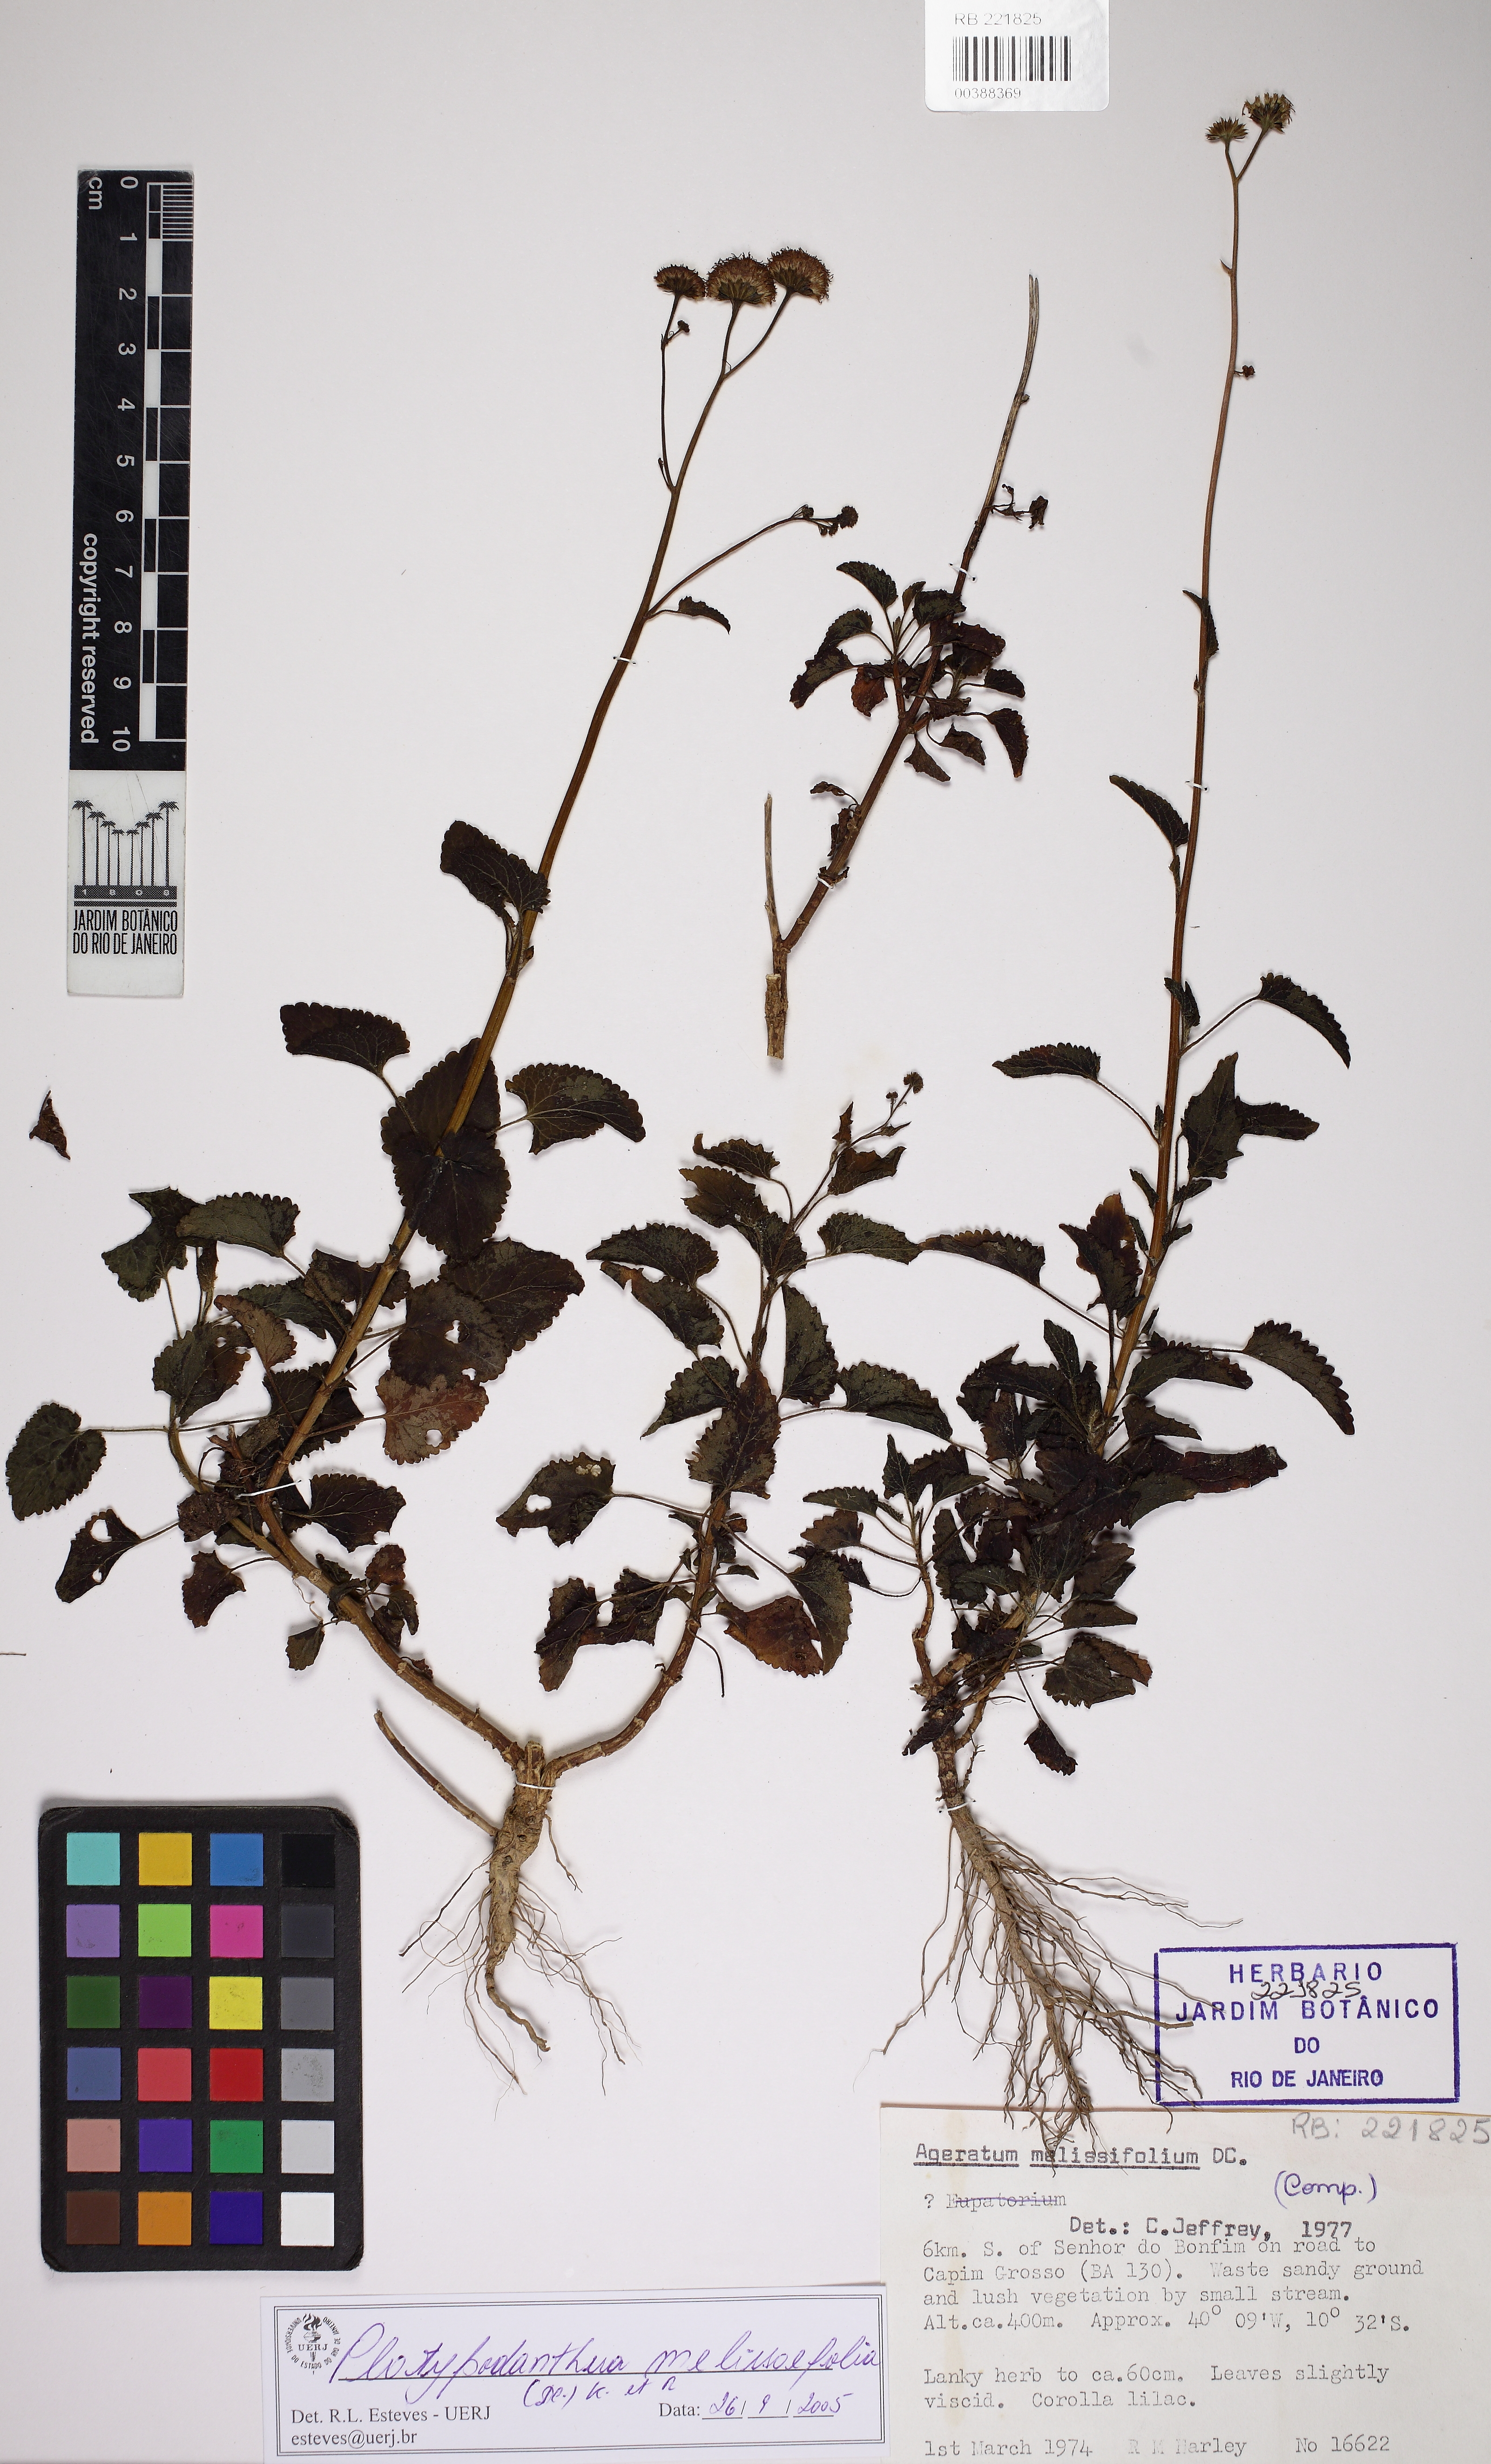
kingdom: Plantae
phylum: Tracheophyta
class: Magnoliopsida
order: Asterales
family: Asteraceae
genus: Platypodanthera
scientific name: Platypodanthera melissifolia
